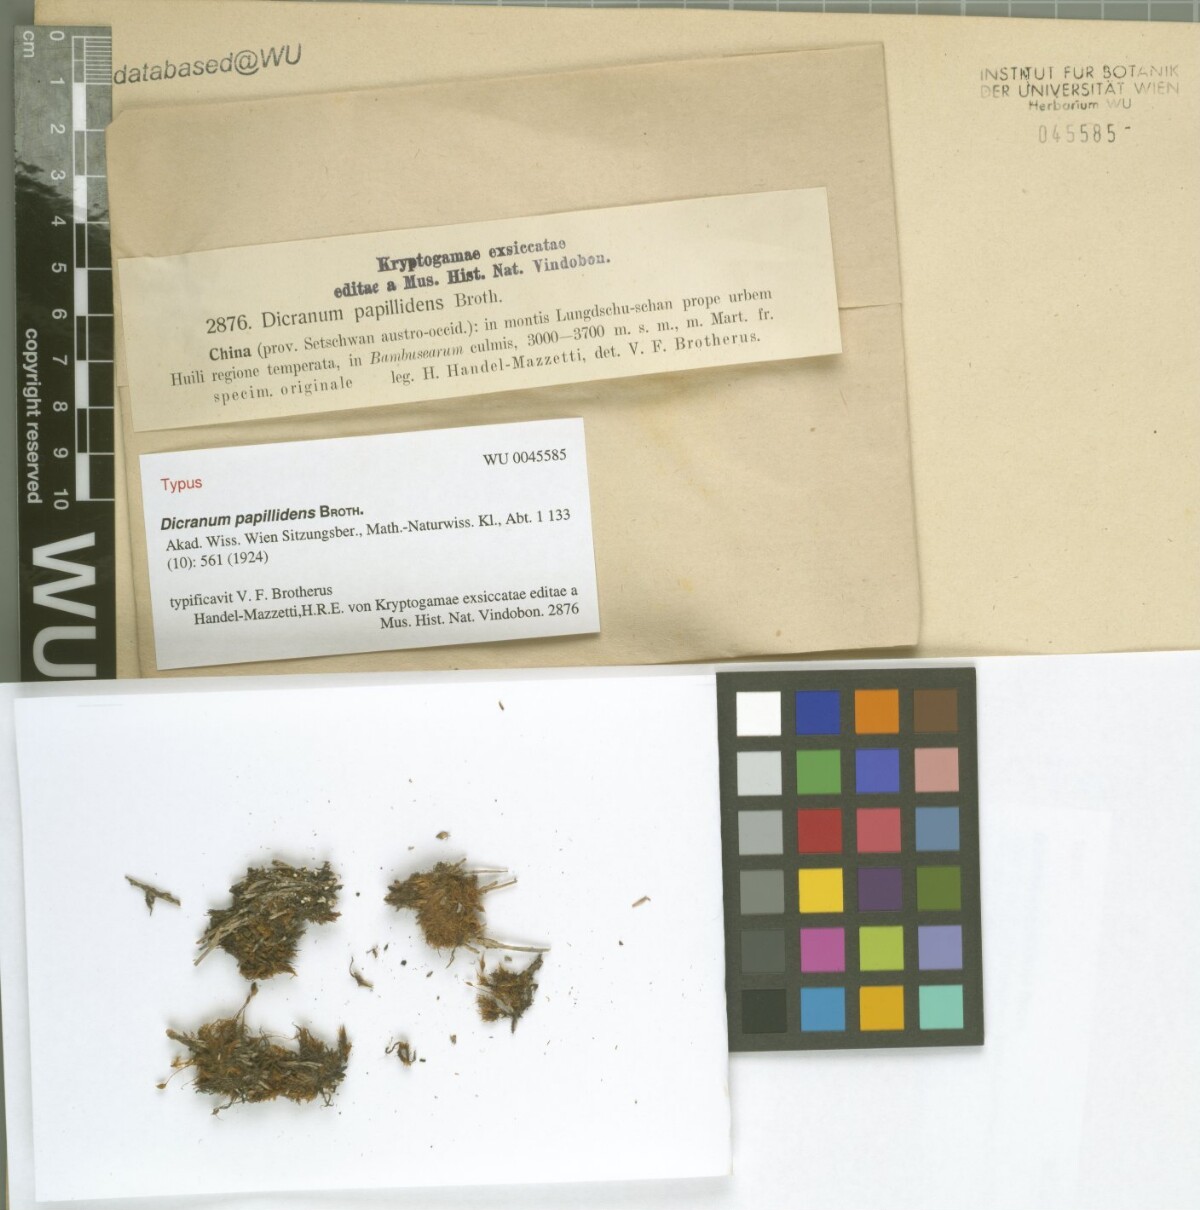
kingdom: Plantae
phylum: Bryophyta
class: Bryopsida
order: Dicranales
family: Dicranaceae
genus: Dicranum
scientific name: Dicranum papillidens
